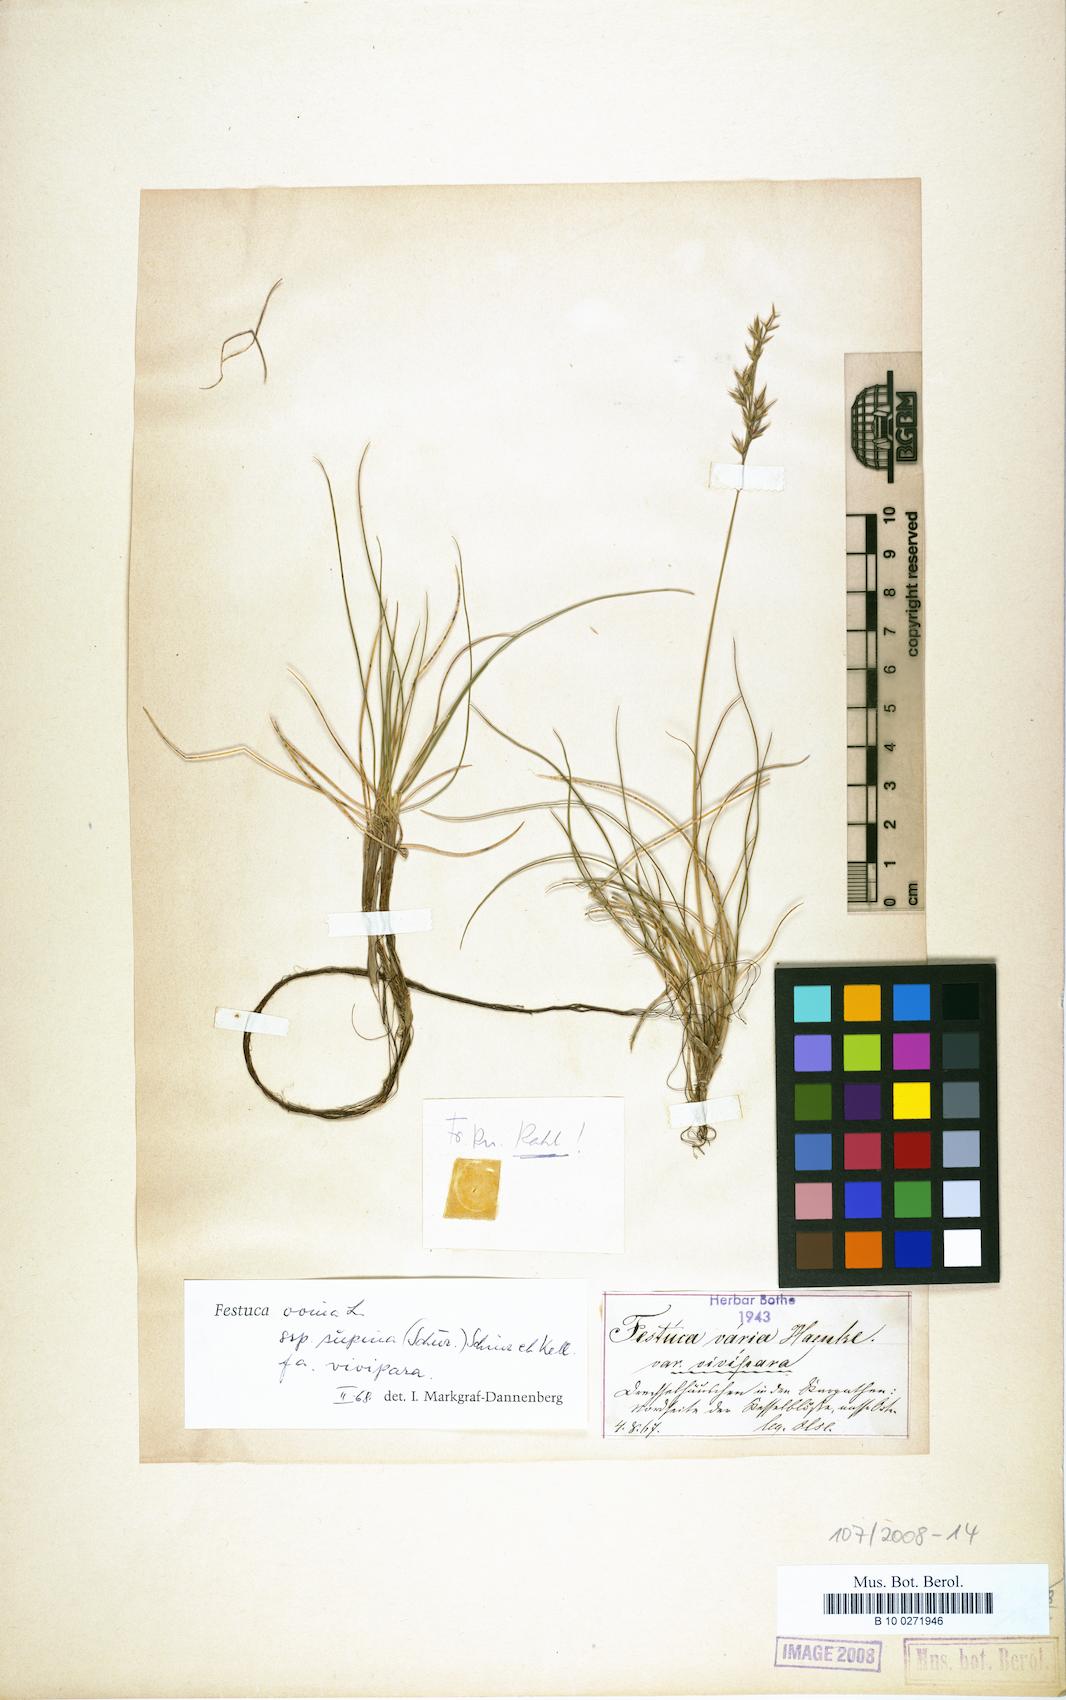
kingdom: Plantae
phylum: Tracheophyta
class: Liliopsida
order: Poales
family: Poaceae
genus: Festuca
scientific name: Festuca vivipara
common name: Viviparous sheep's-fescue
